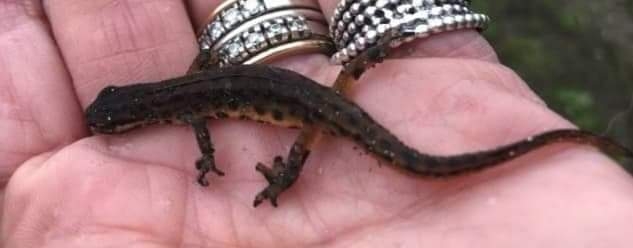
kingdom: Animalia
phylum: Chordata
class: Amphibia
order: Caudata
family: Salamandridae
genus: Lissotriton
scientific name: Lissotriton vulgaris
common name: Lille vandsalamander
